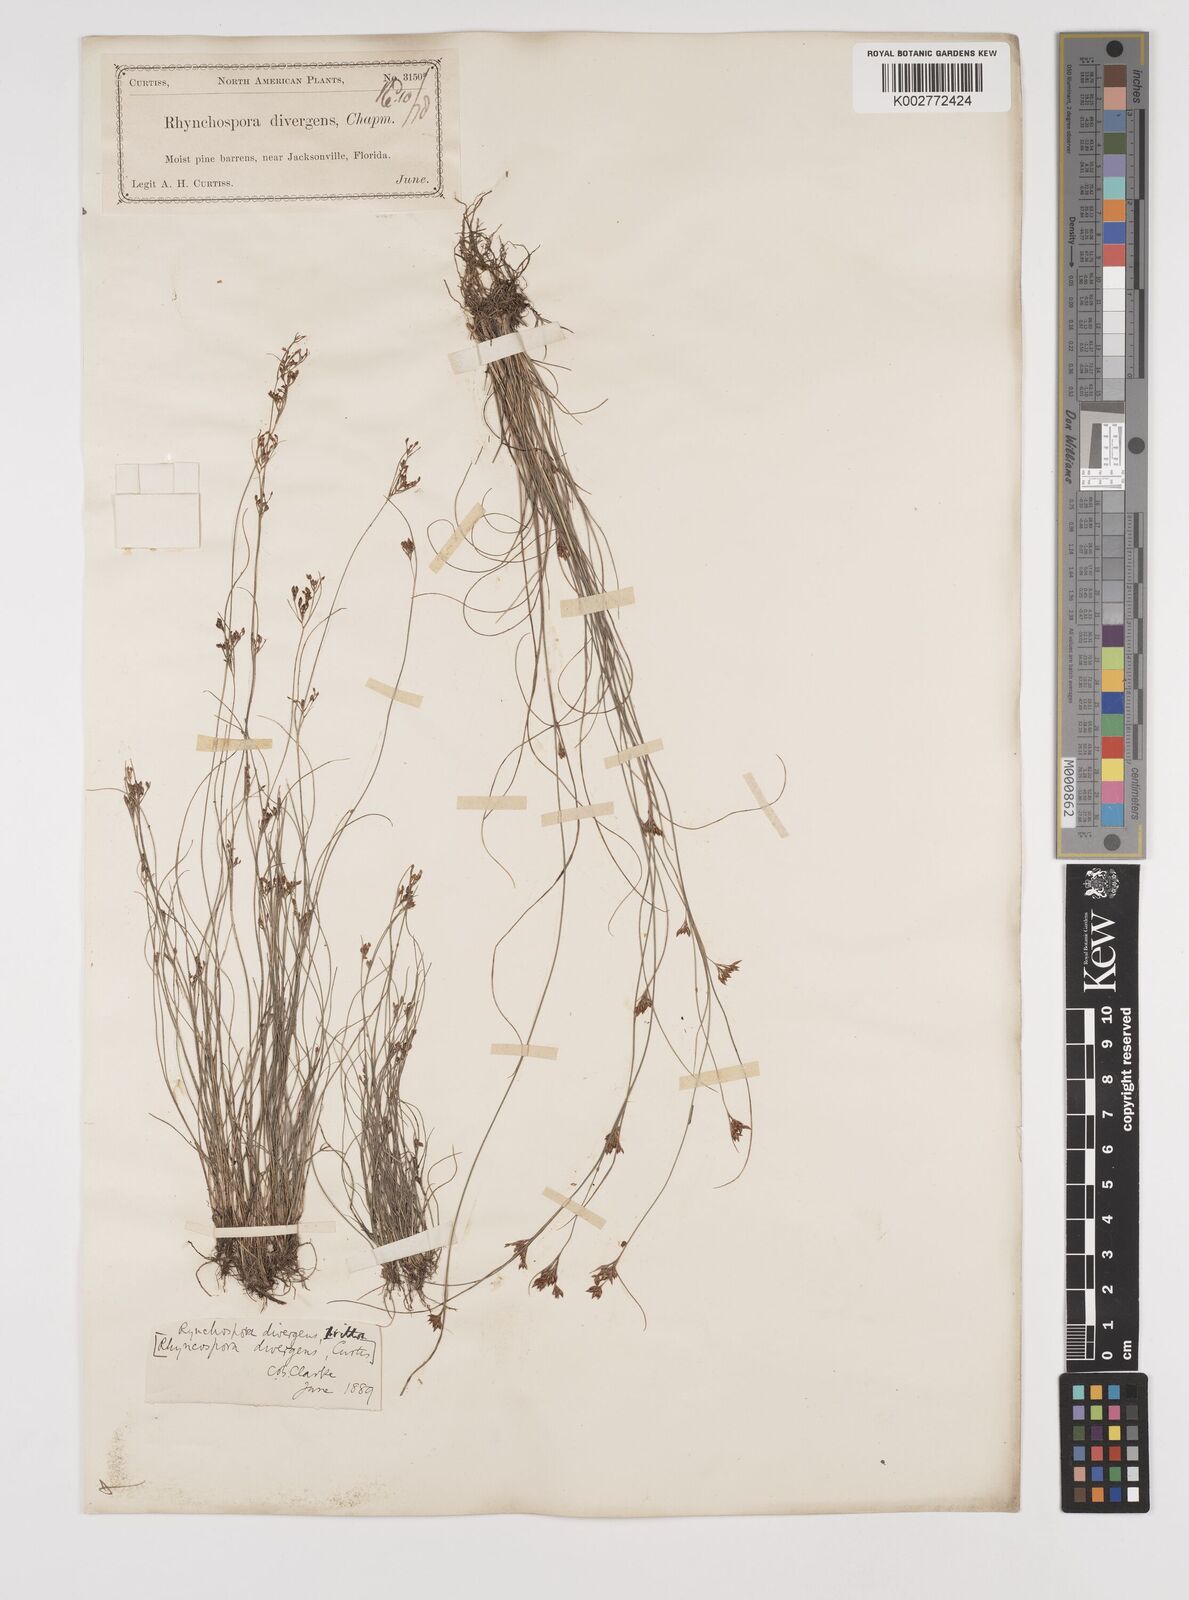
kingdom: Plantae
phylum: Tracheophyta
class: Liliopsida
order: Poales
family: Cyperaceae
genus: Rhynchospora
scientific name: Rhynchospora divergens
